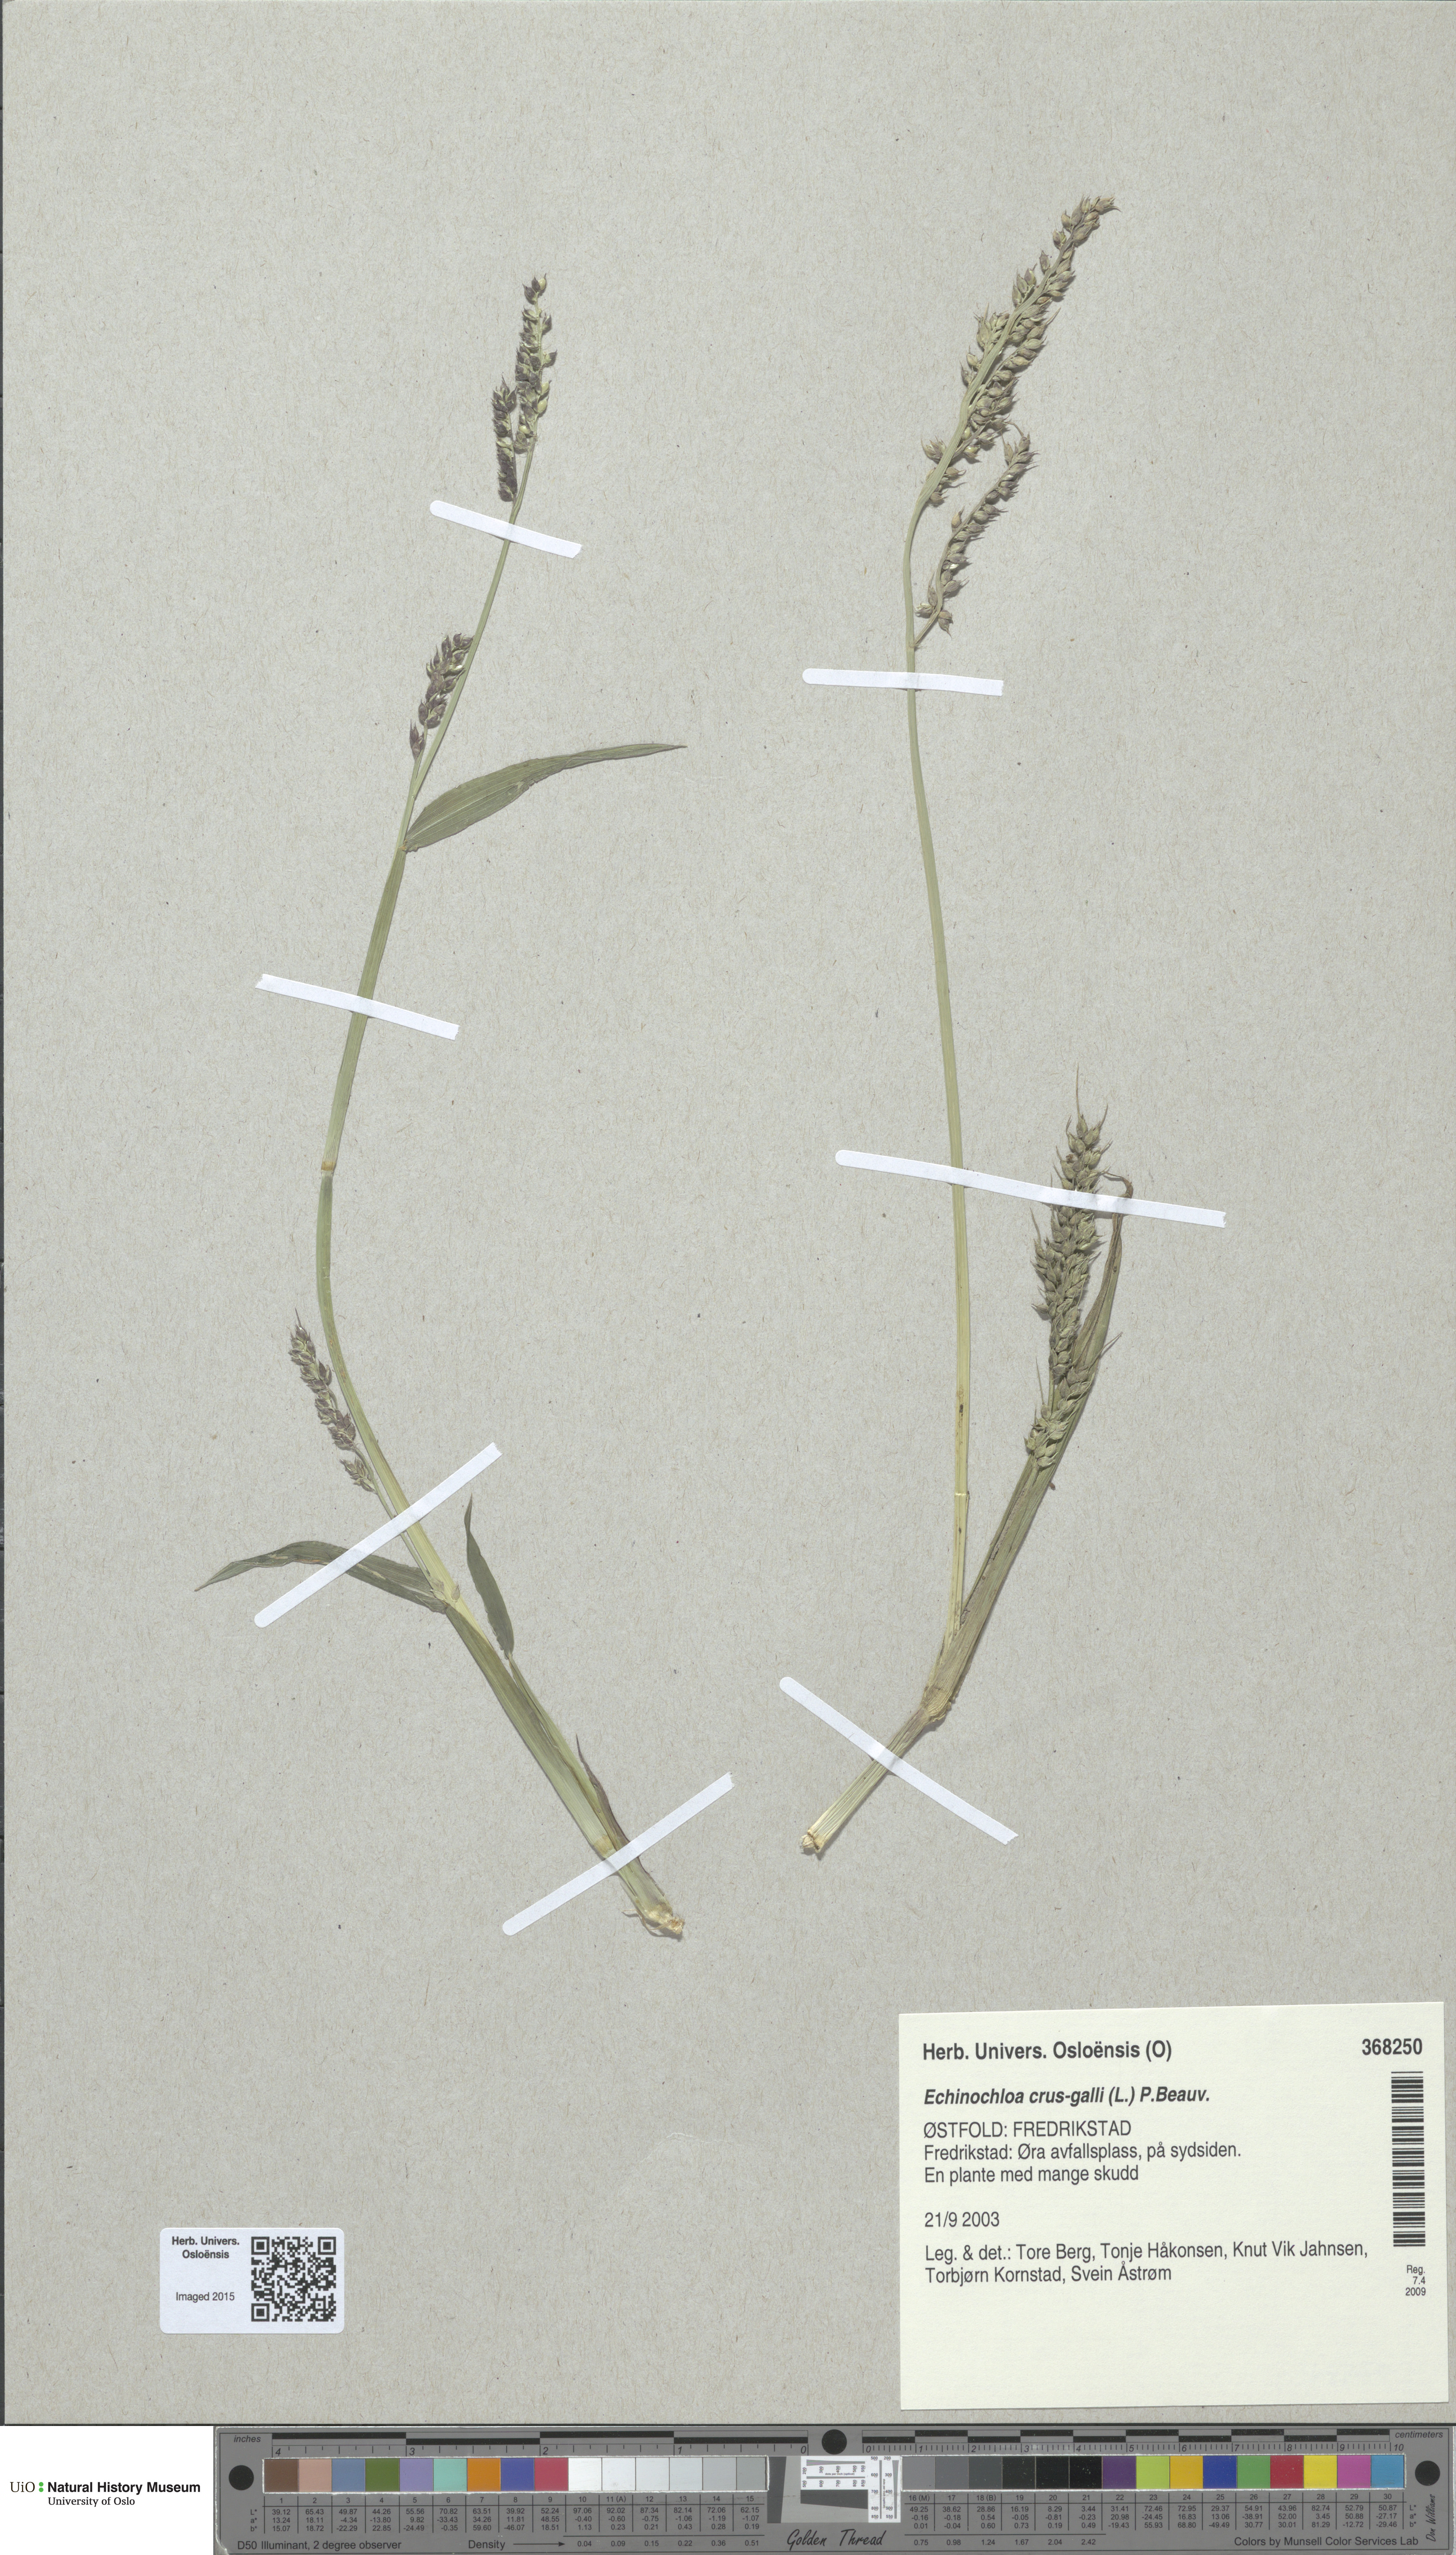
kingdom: Plantae
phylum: Tracheophyta
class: Liliopsida
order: Poales
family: Poaceae
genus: Echinochloa
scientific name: Echinochloa crus-galli
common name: Cockspur
